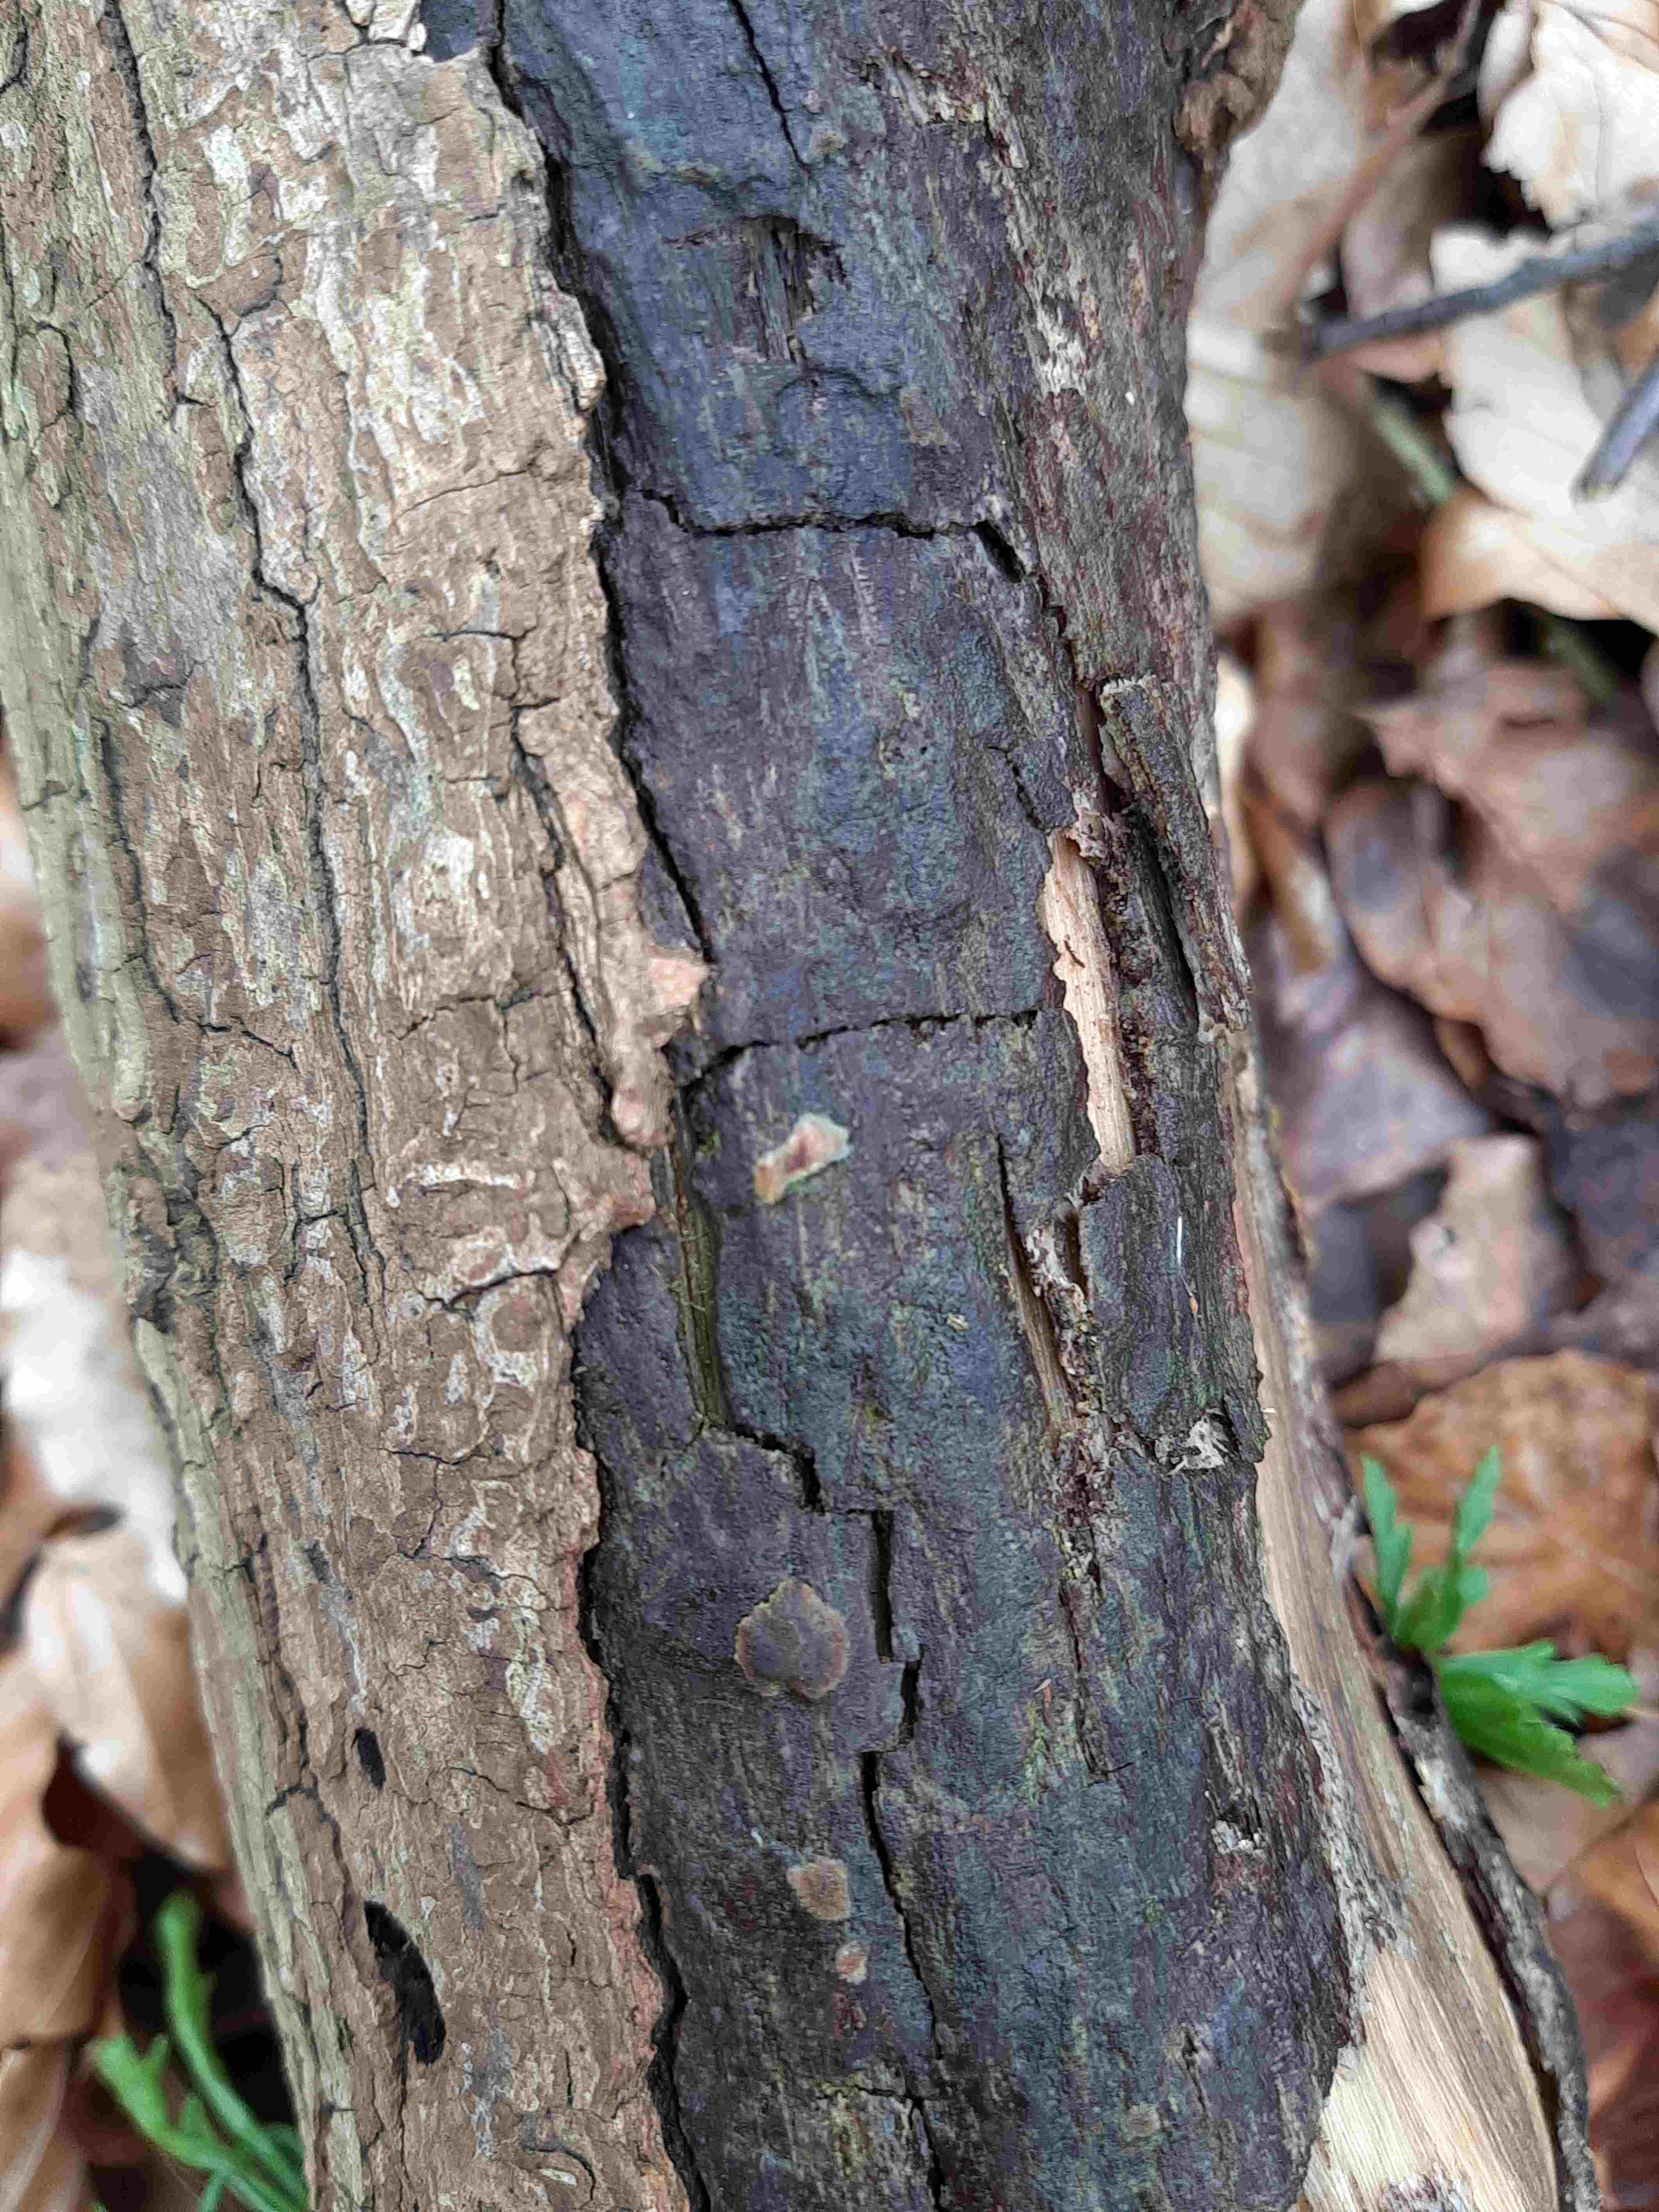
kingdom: Fungi
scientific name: Fungi
